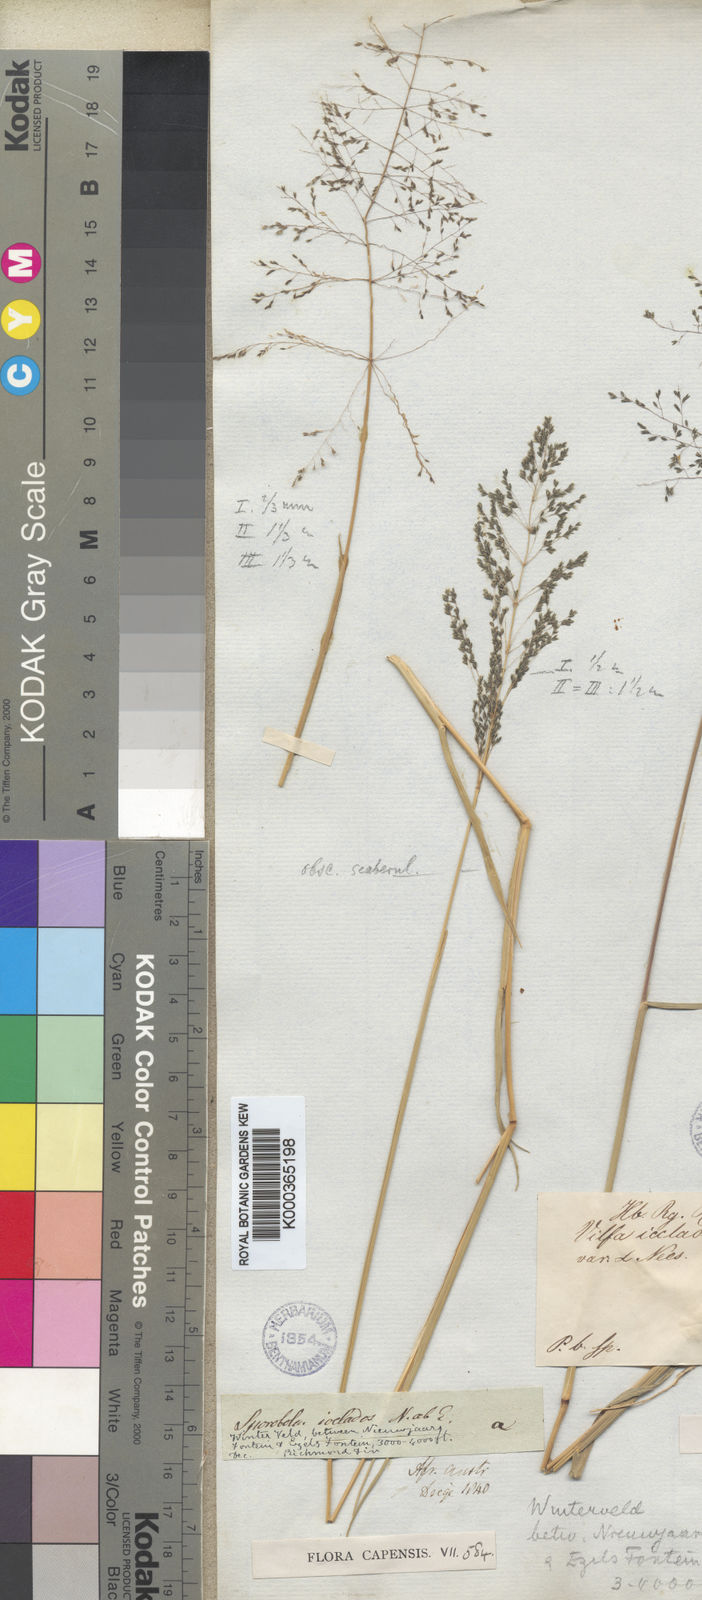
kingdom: Plantae
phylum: Tracheophyta
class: Liliopsida
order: Poales
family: Poaceae
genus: Sporobolus
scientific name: Sporobolus ioclados
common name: Pan dropseed
